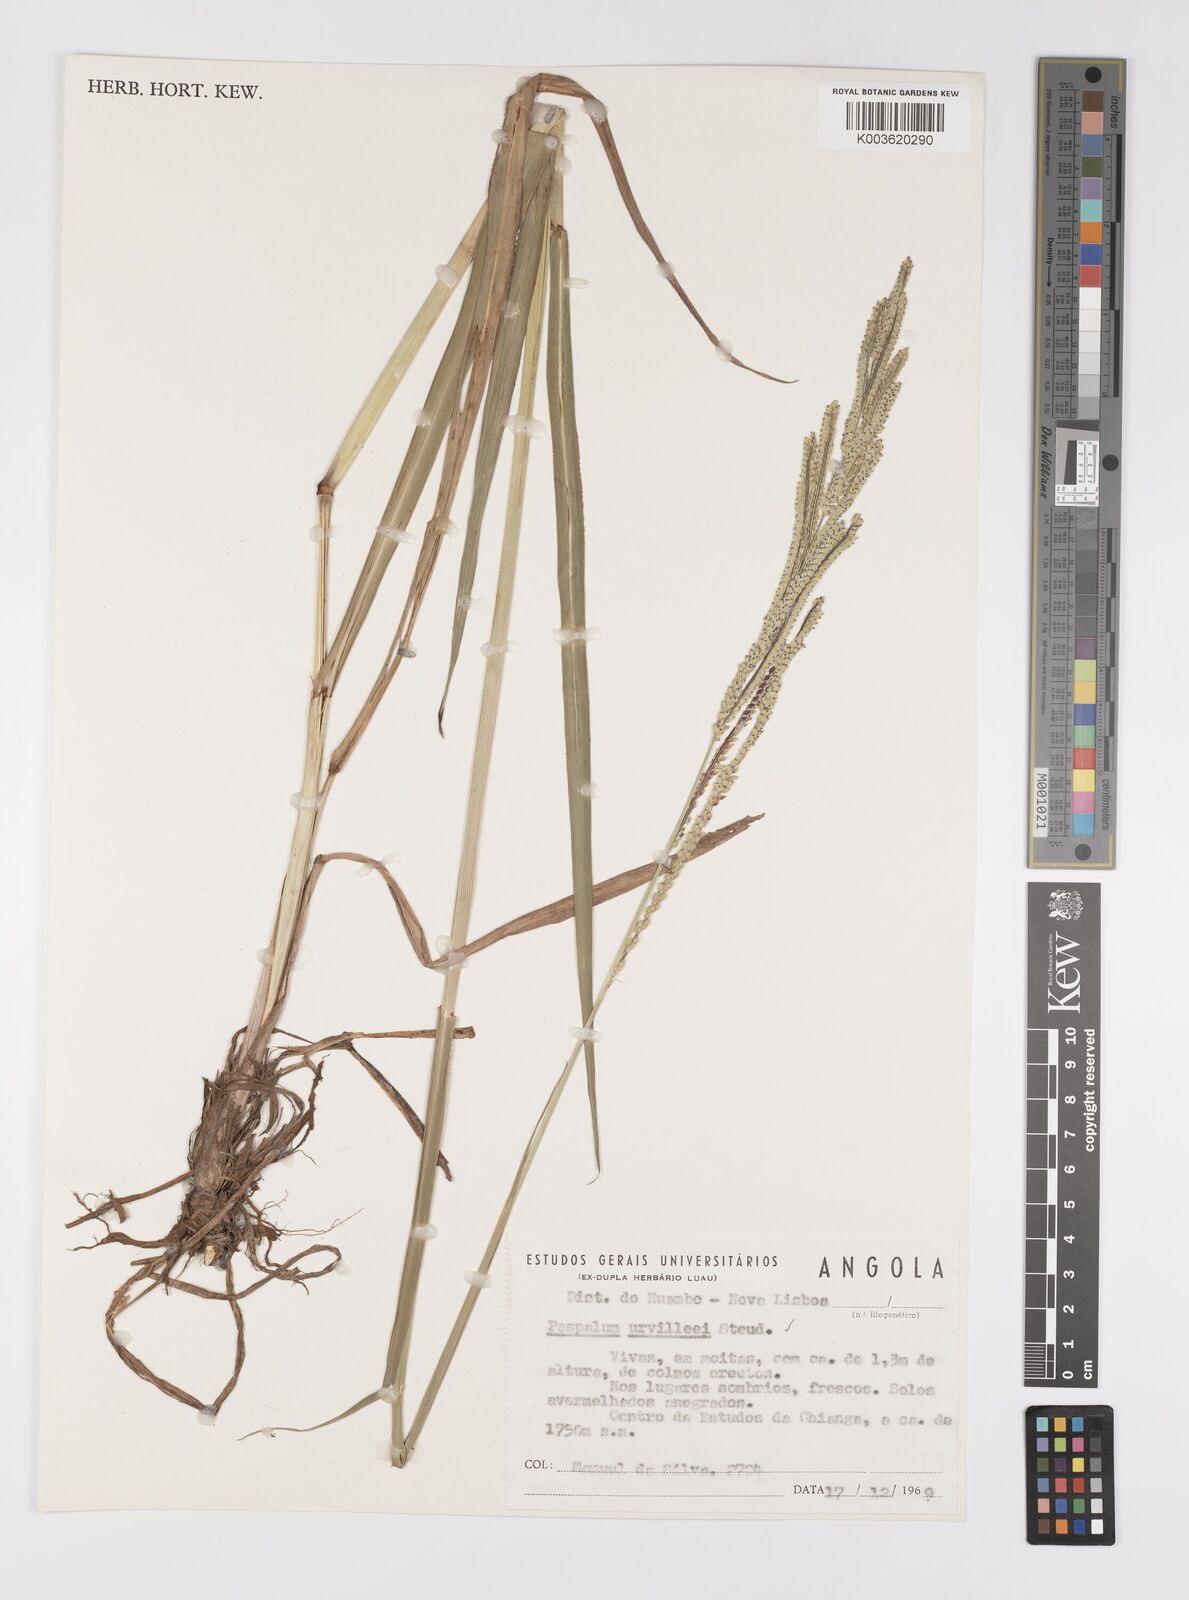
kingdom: Plantae
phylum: Tracheophyta
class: Liliopsida
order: Poales
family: Poaceae
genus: Paspalum
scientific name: Paspalum urvillei
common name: Vasey's grass
